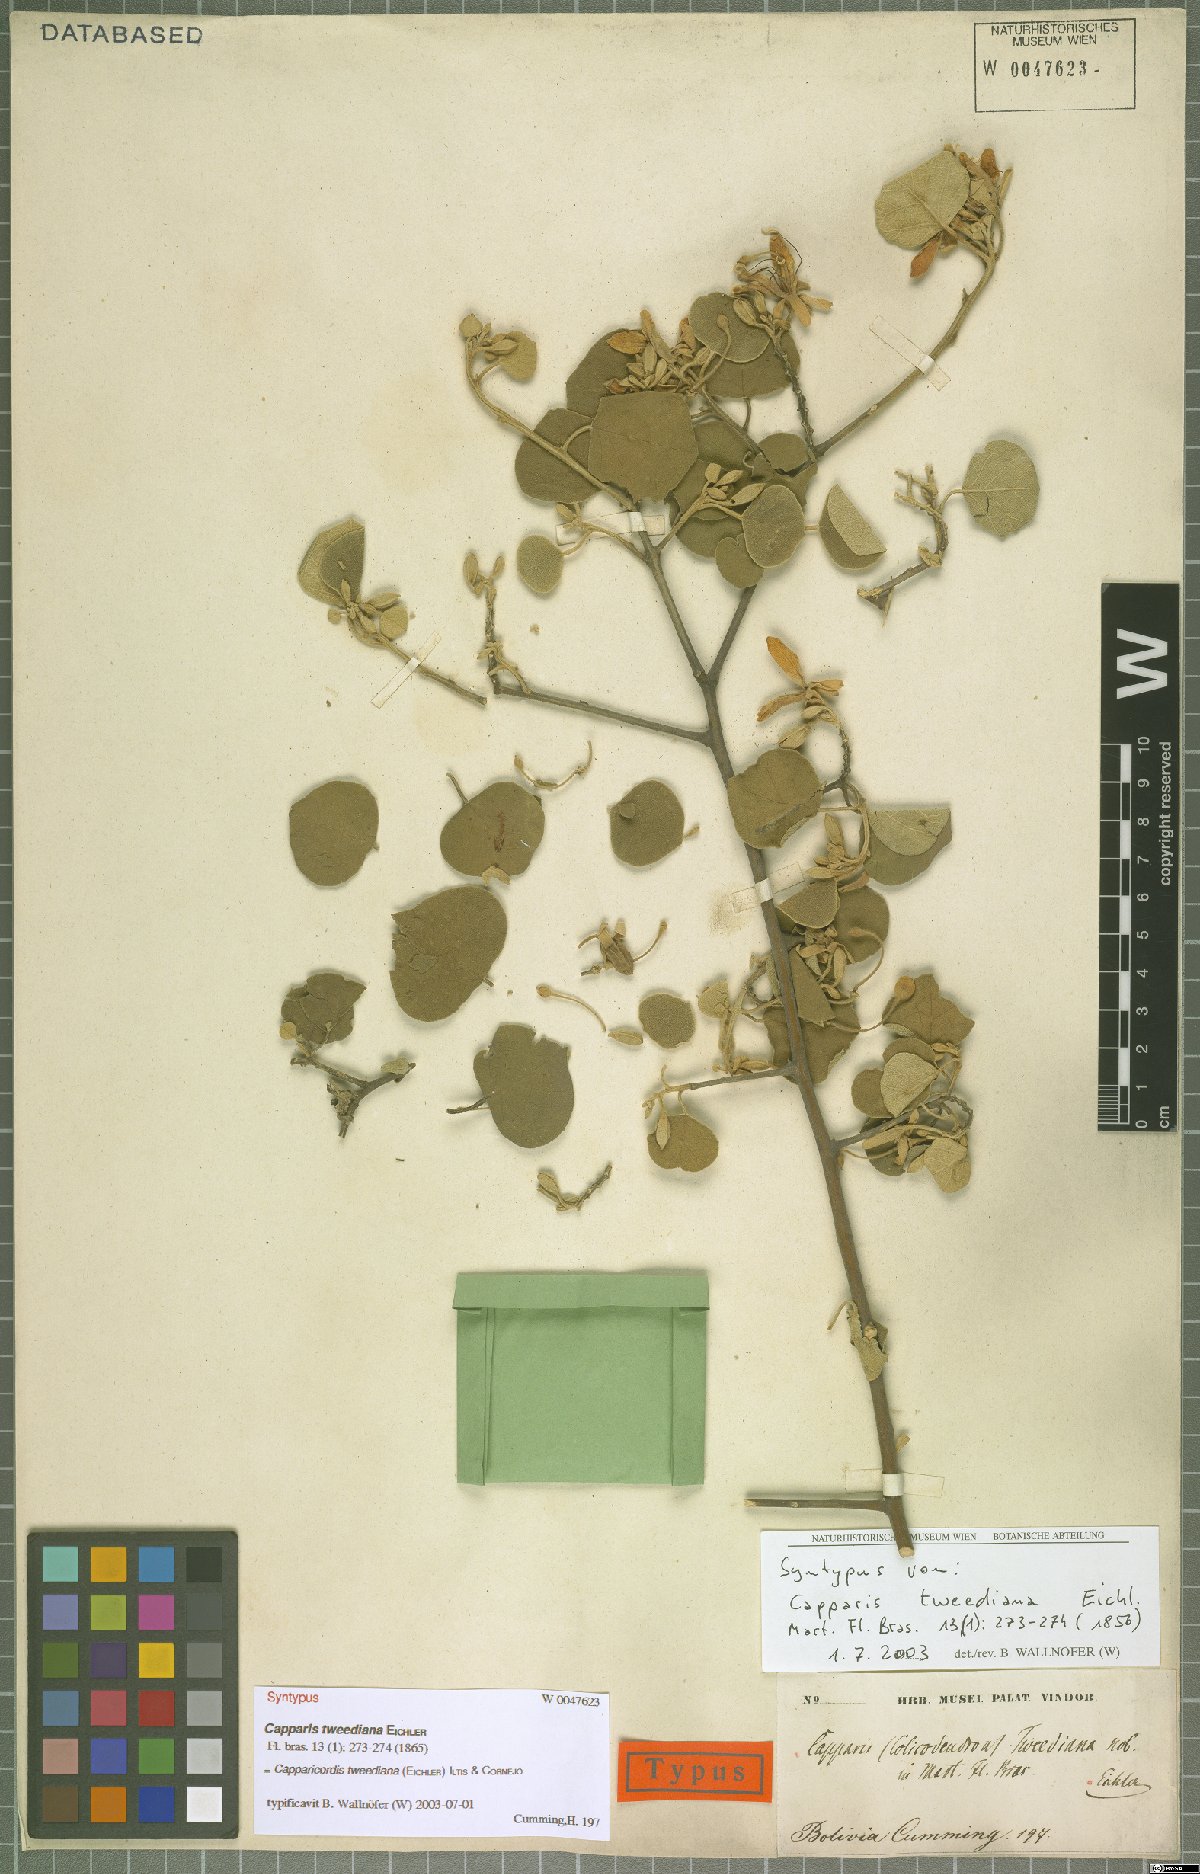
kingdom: Plantae
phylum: Tracheophyta
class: Magnoliopsida
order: Brassicales
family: Capparaceae
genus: Capparicordis
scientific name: Capparicordis tweediana
